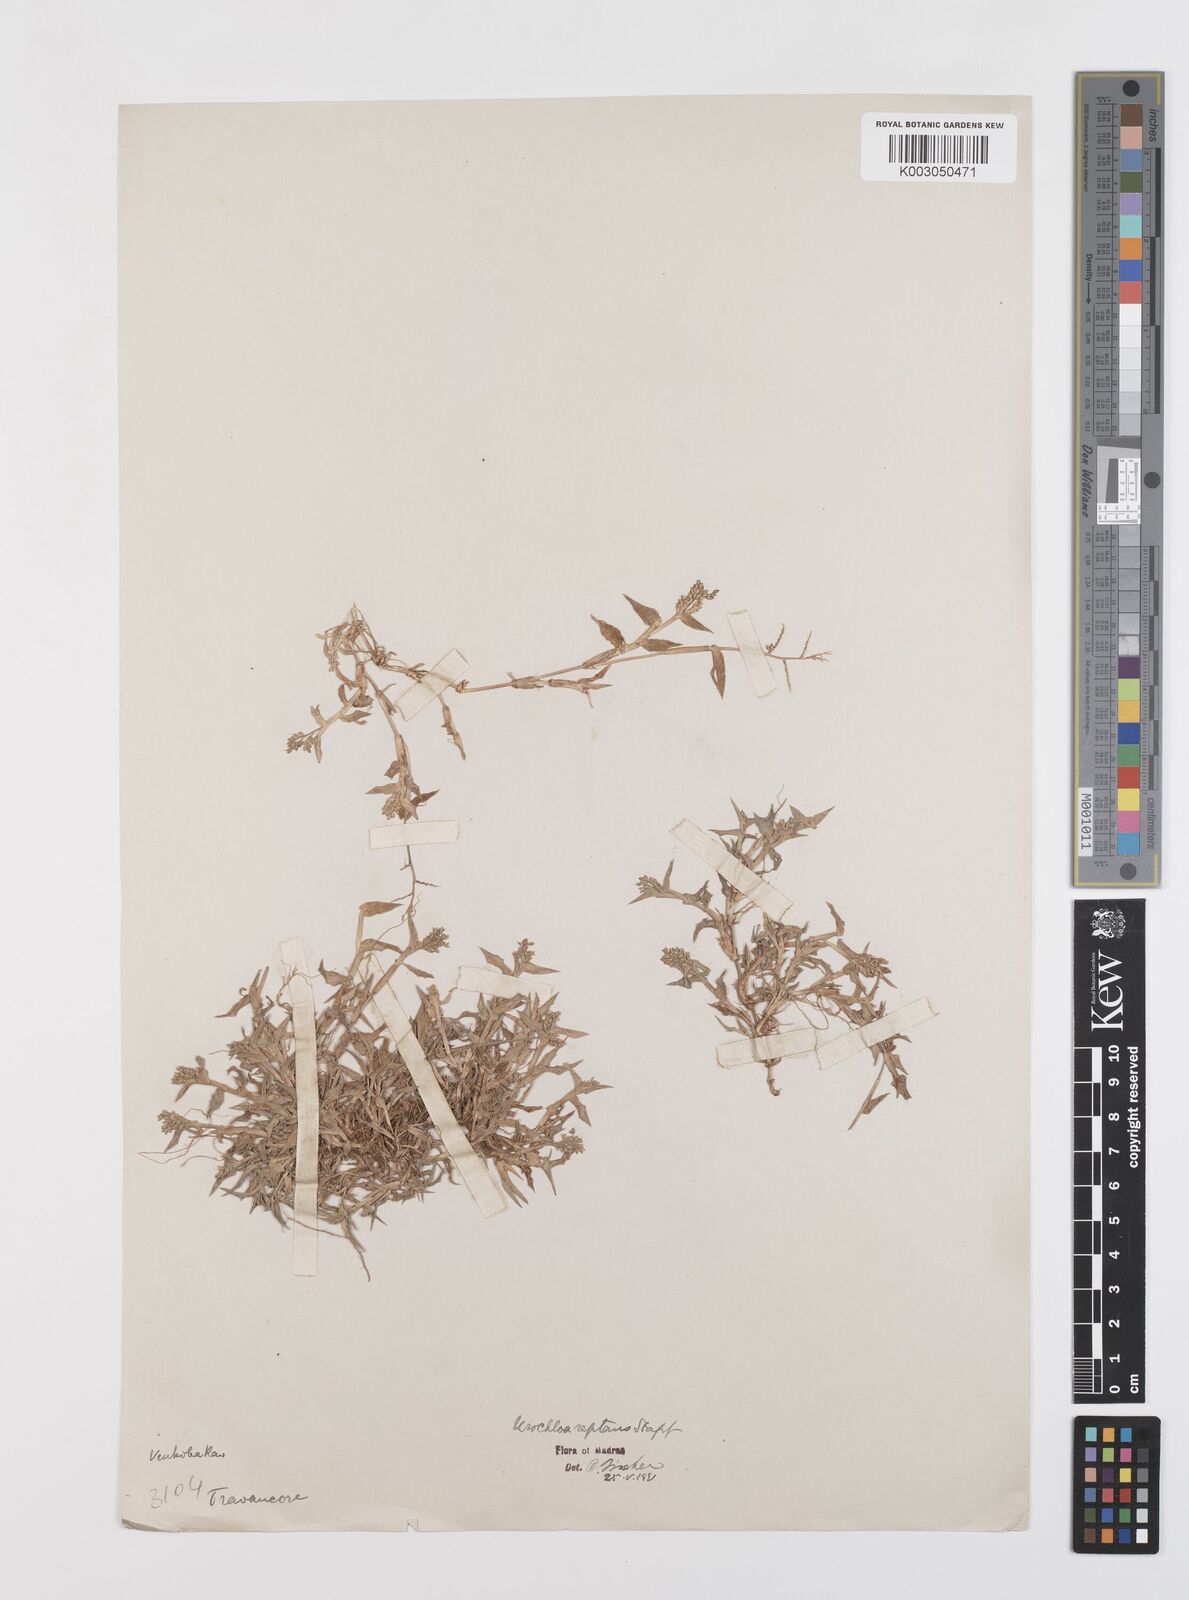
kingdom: Plantae
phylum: Tracheophyta
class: Liliopsida
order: Poales
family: Poaceae
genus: Urochloa
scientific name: Urochloa reptans
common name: Sprawling signalgrass
